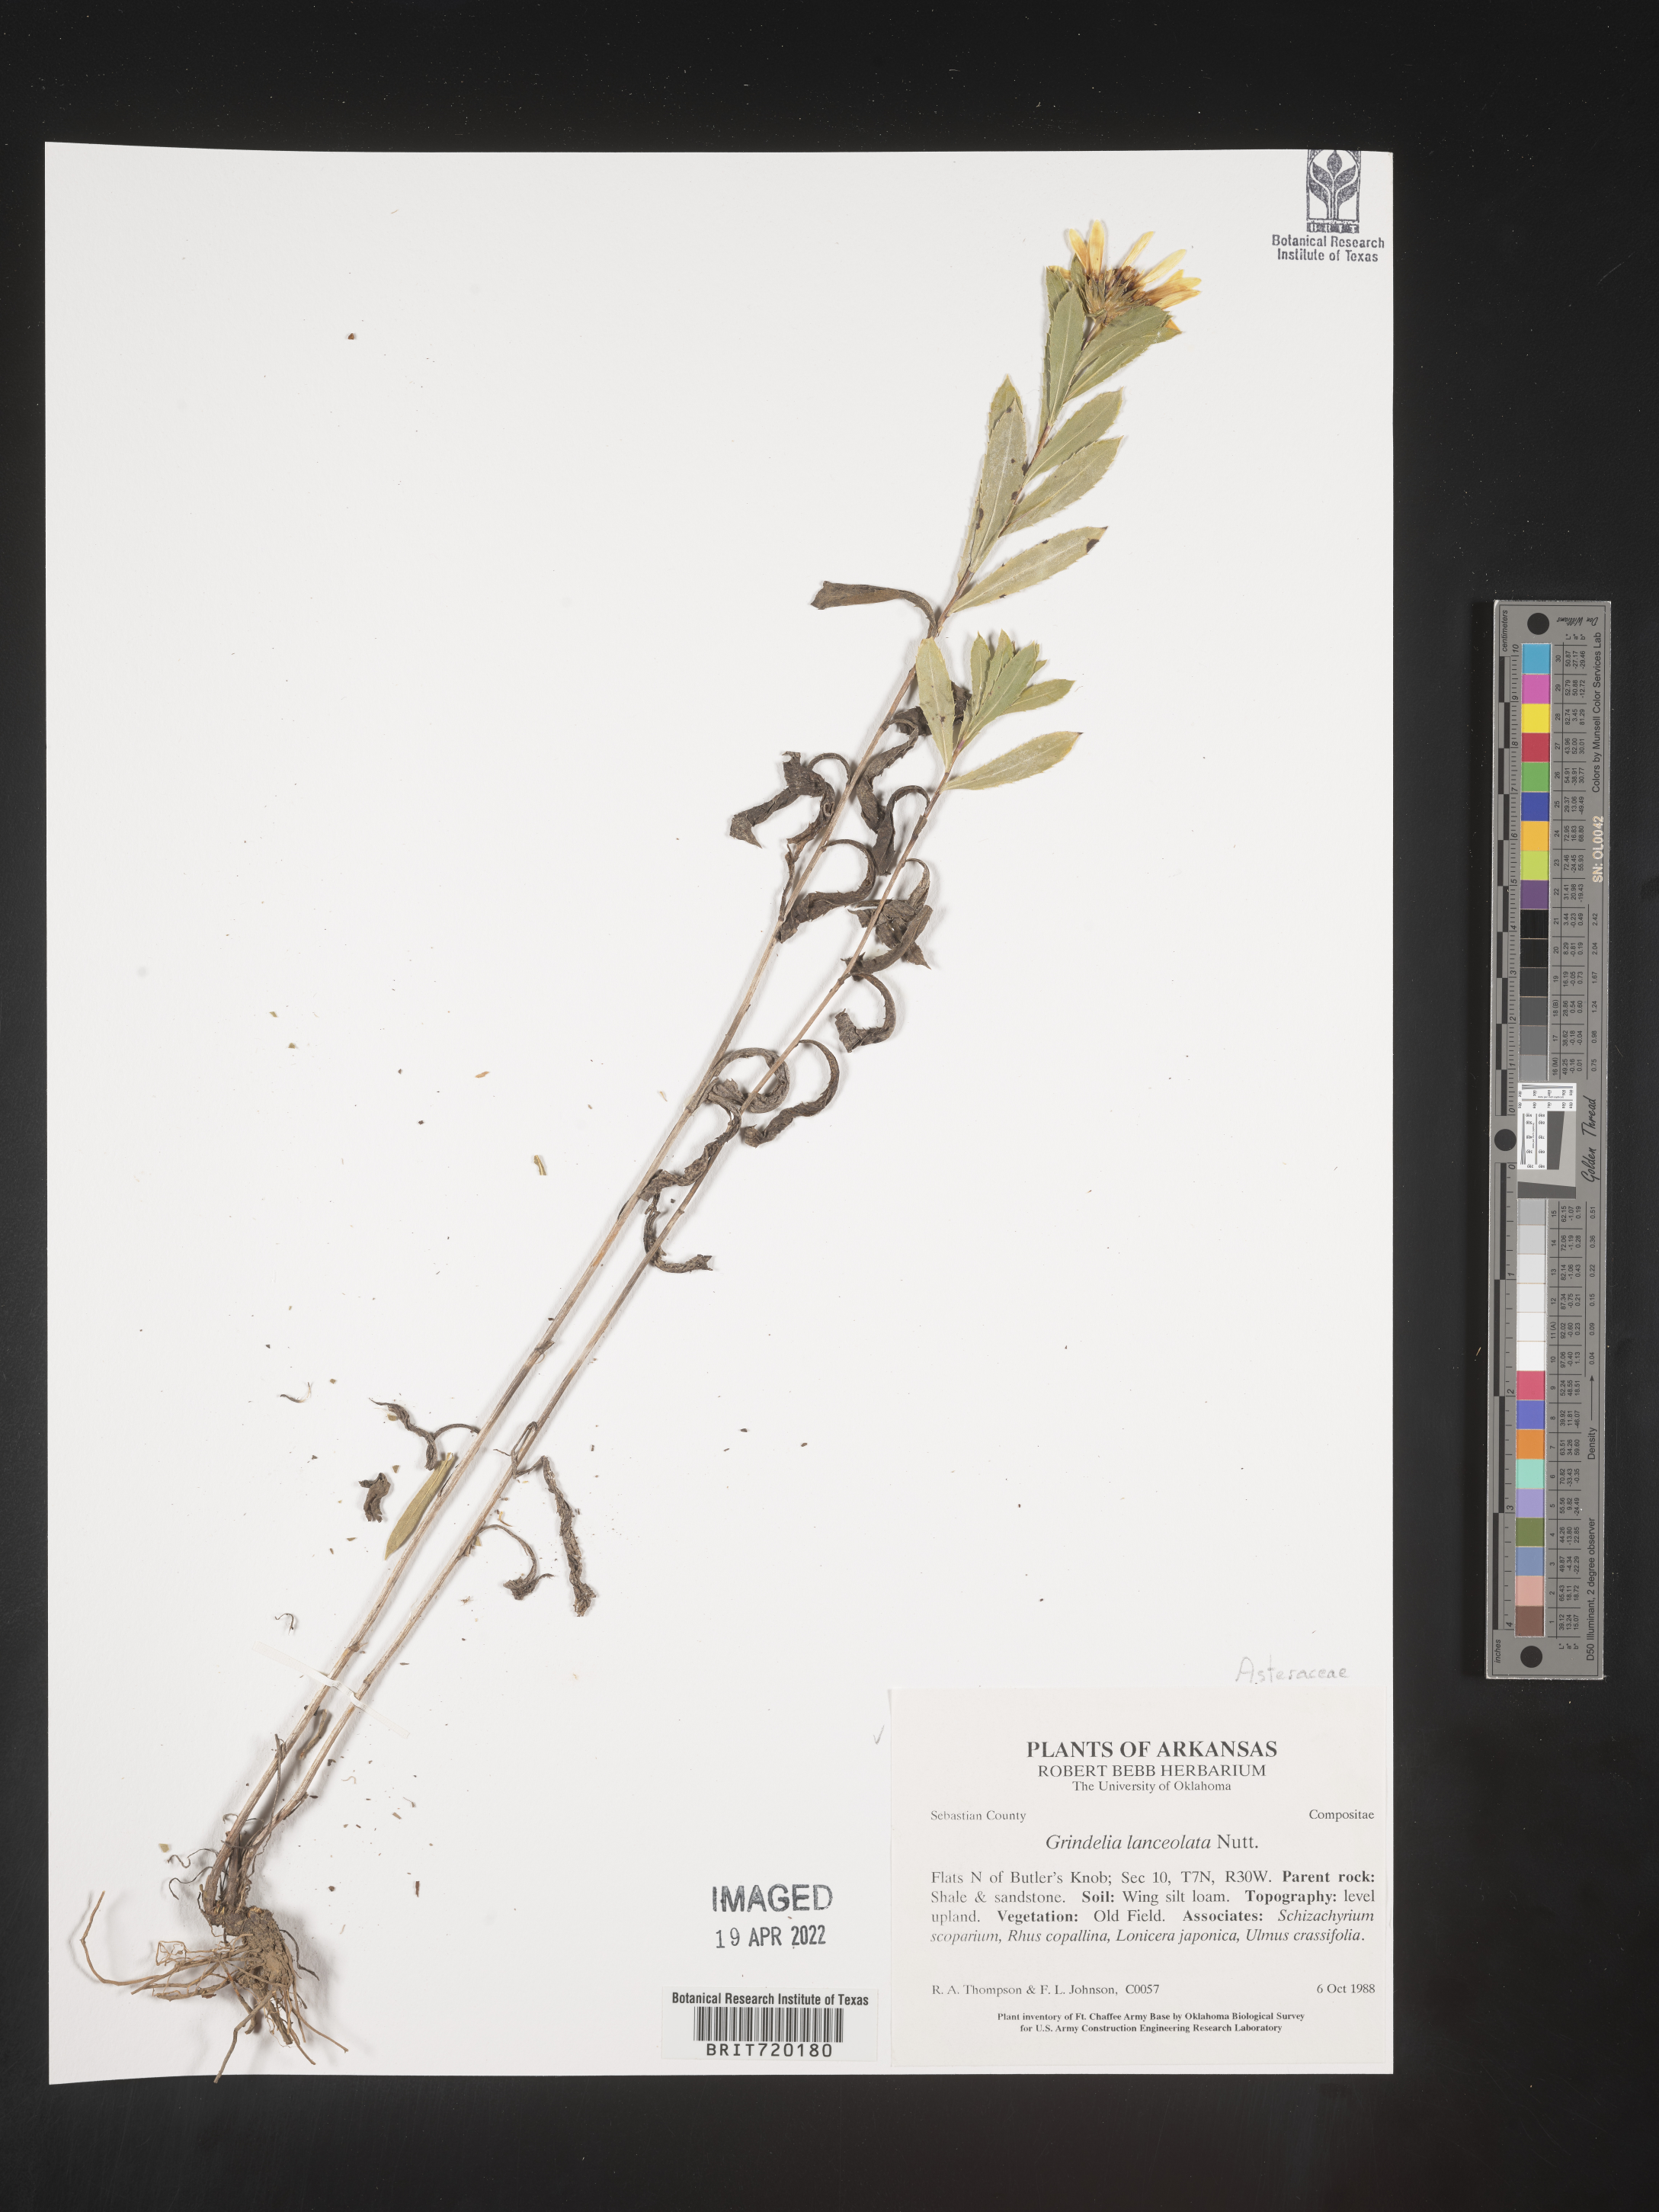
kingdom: Plantae
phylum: Tracheophyta
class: Magnoliopsida
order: Asterales
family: Asteraceae
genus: Grindelia
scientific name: Grindelia lanceolata
